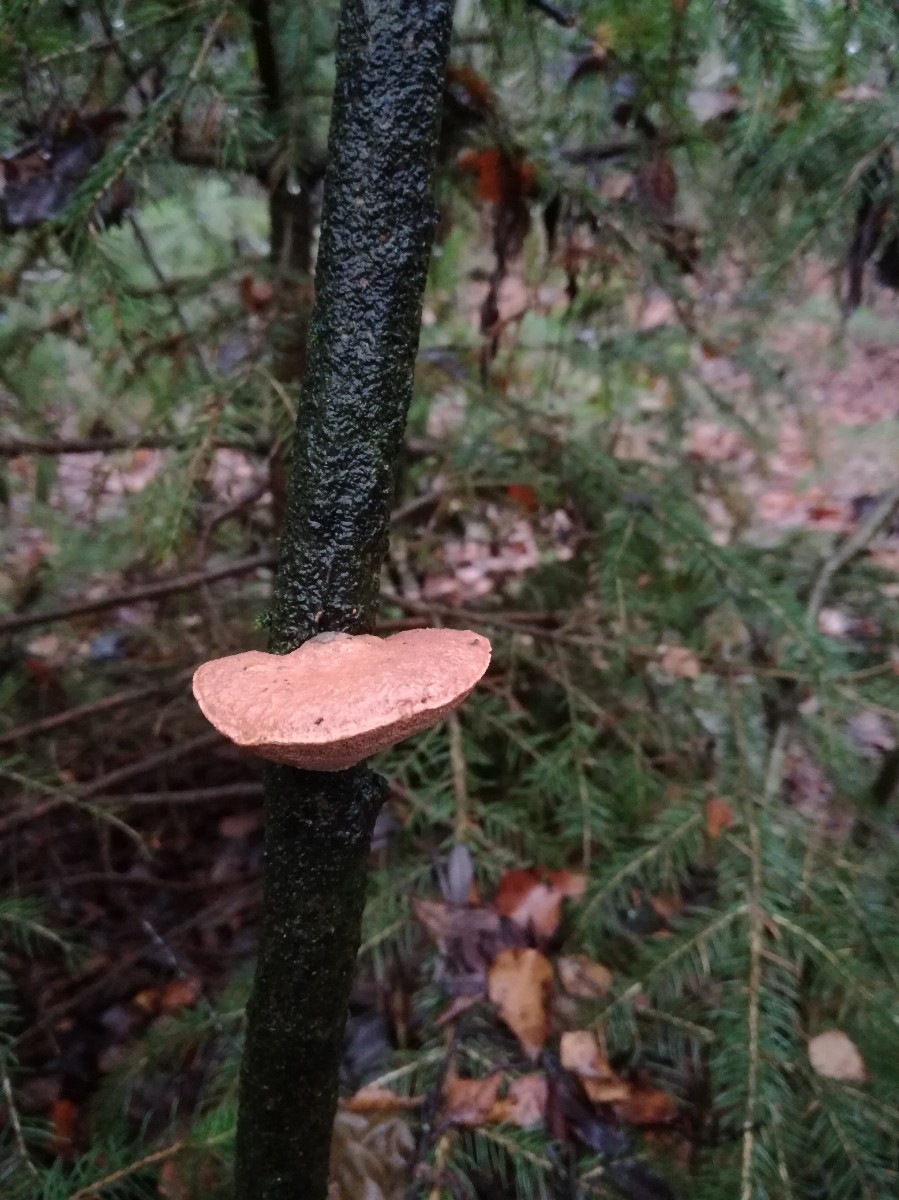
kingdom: Fungi
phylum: Basidiomycota
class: Agaricomycetes
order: Polyporales
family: Phanerochaetaceae
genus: Hapalopilus
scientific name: Hapalopilus rutilans
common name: rødlig okkerporesvamp
